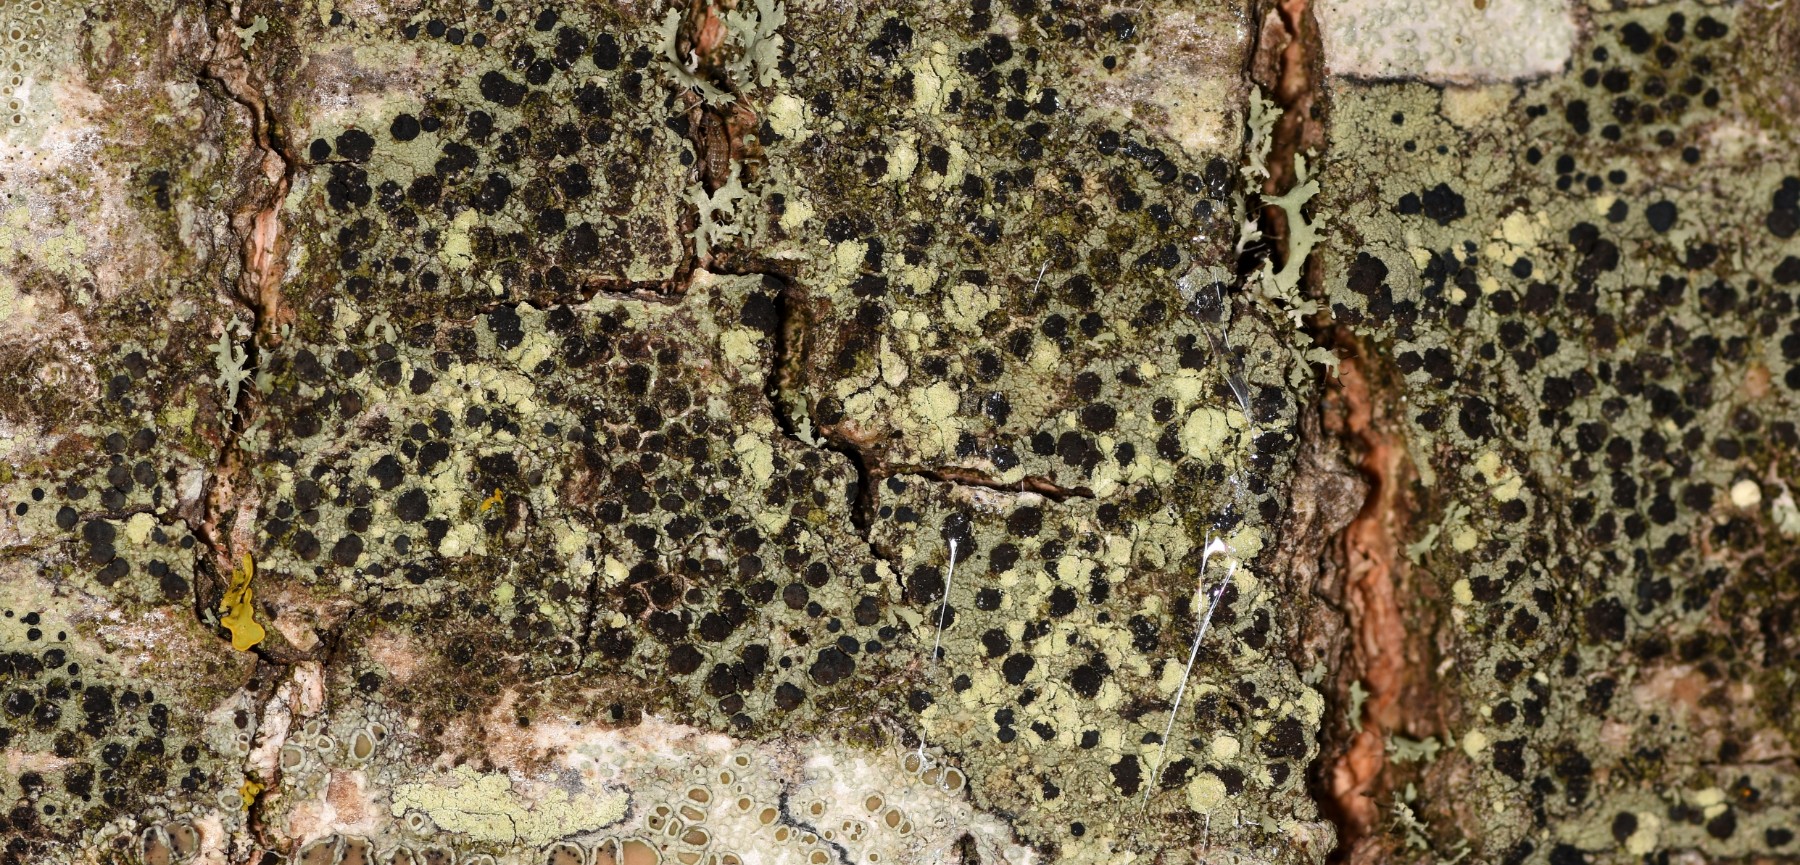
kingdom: Fungi
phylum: Ascomycota
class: Lecanoromycetes
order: Lecanorales
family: Lecanoraceae
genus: Lecidella
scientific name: Lecidella elaeochroma
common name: grågrøn skivelav
